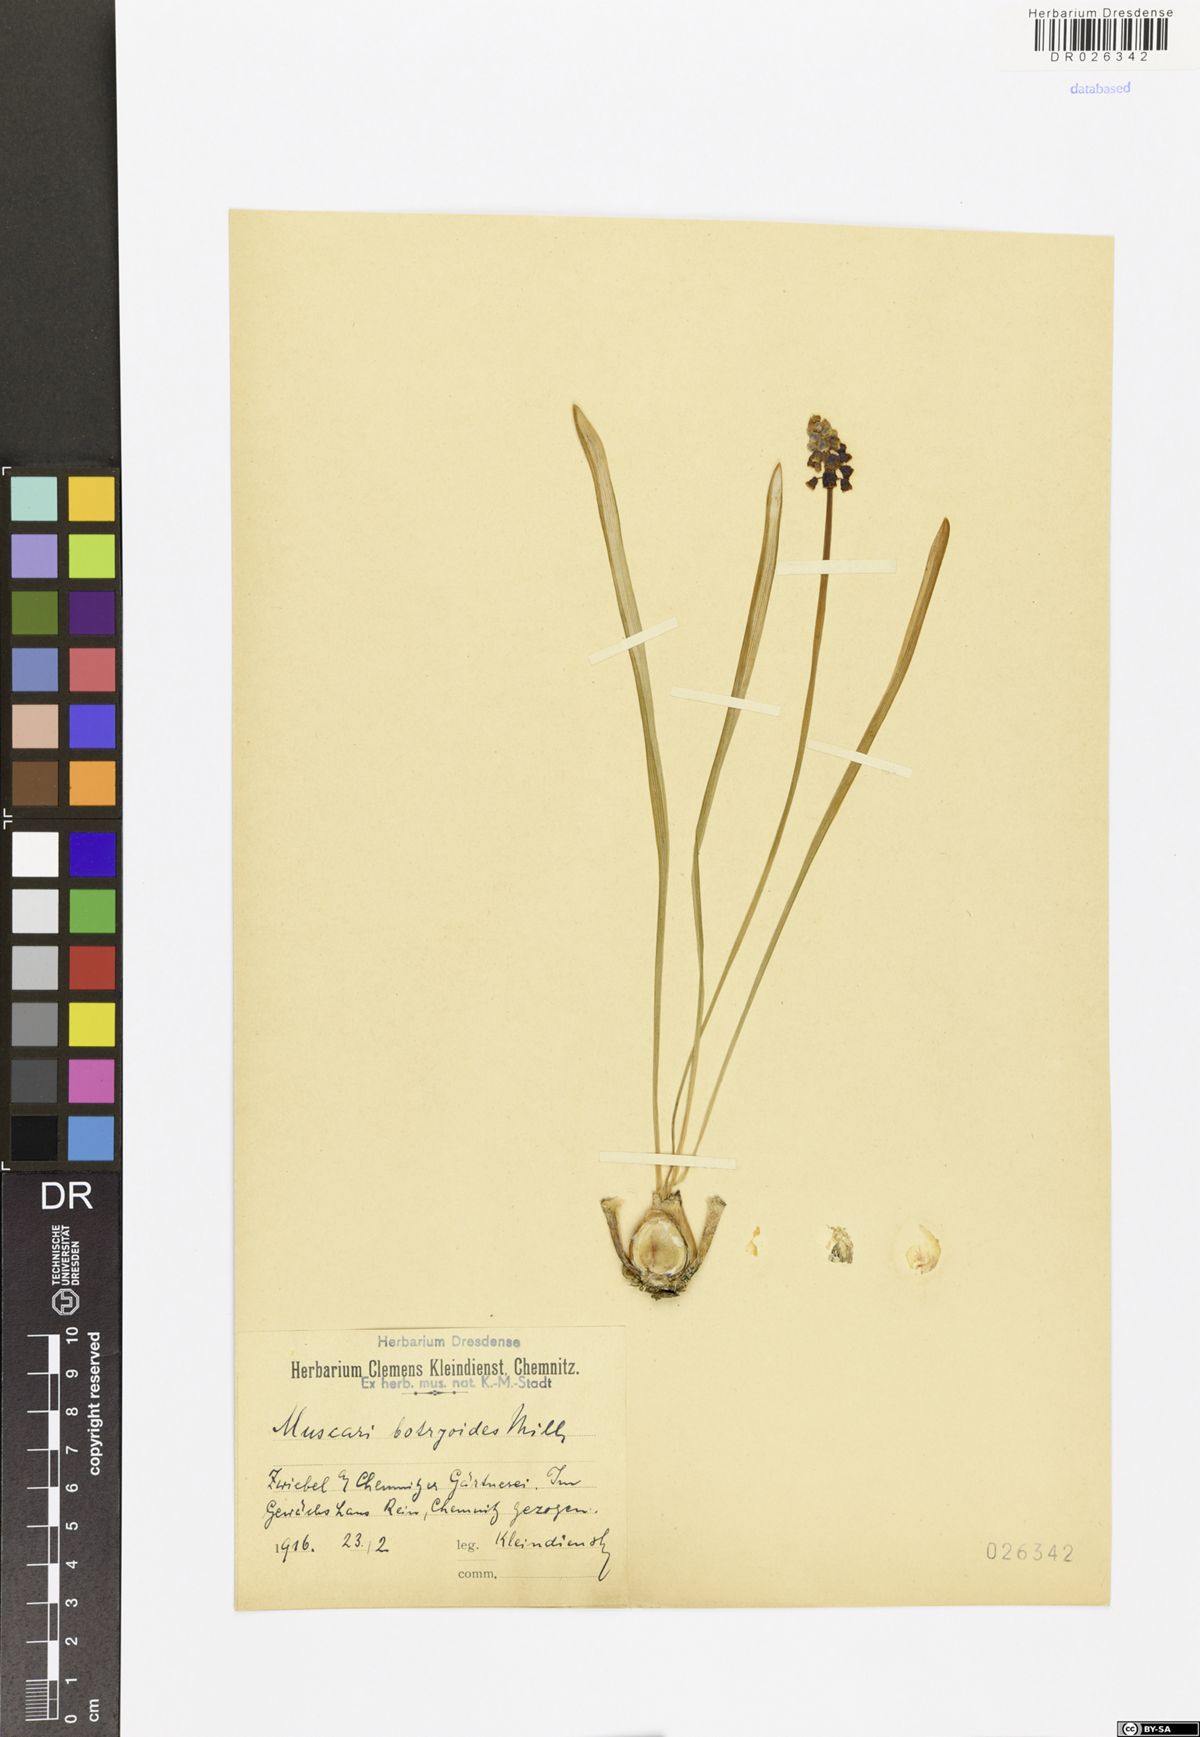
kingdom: Plantae
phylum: Tracheophyta
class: Liliopsida
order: Asparagales
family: Asparagaceae
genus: Muscari
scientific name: Muscari botryoides
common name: Compact grape-hyacinth
